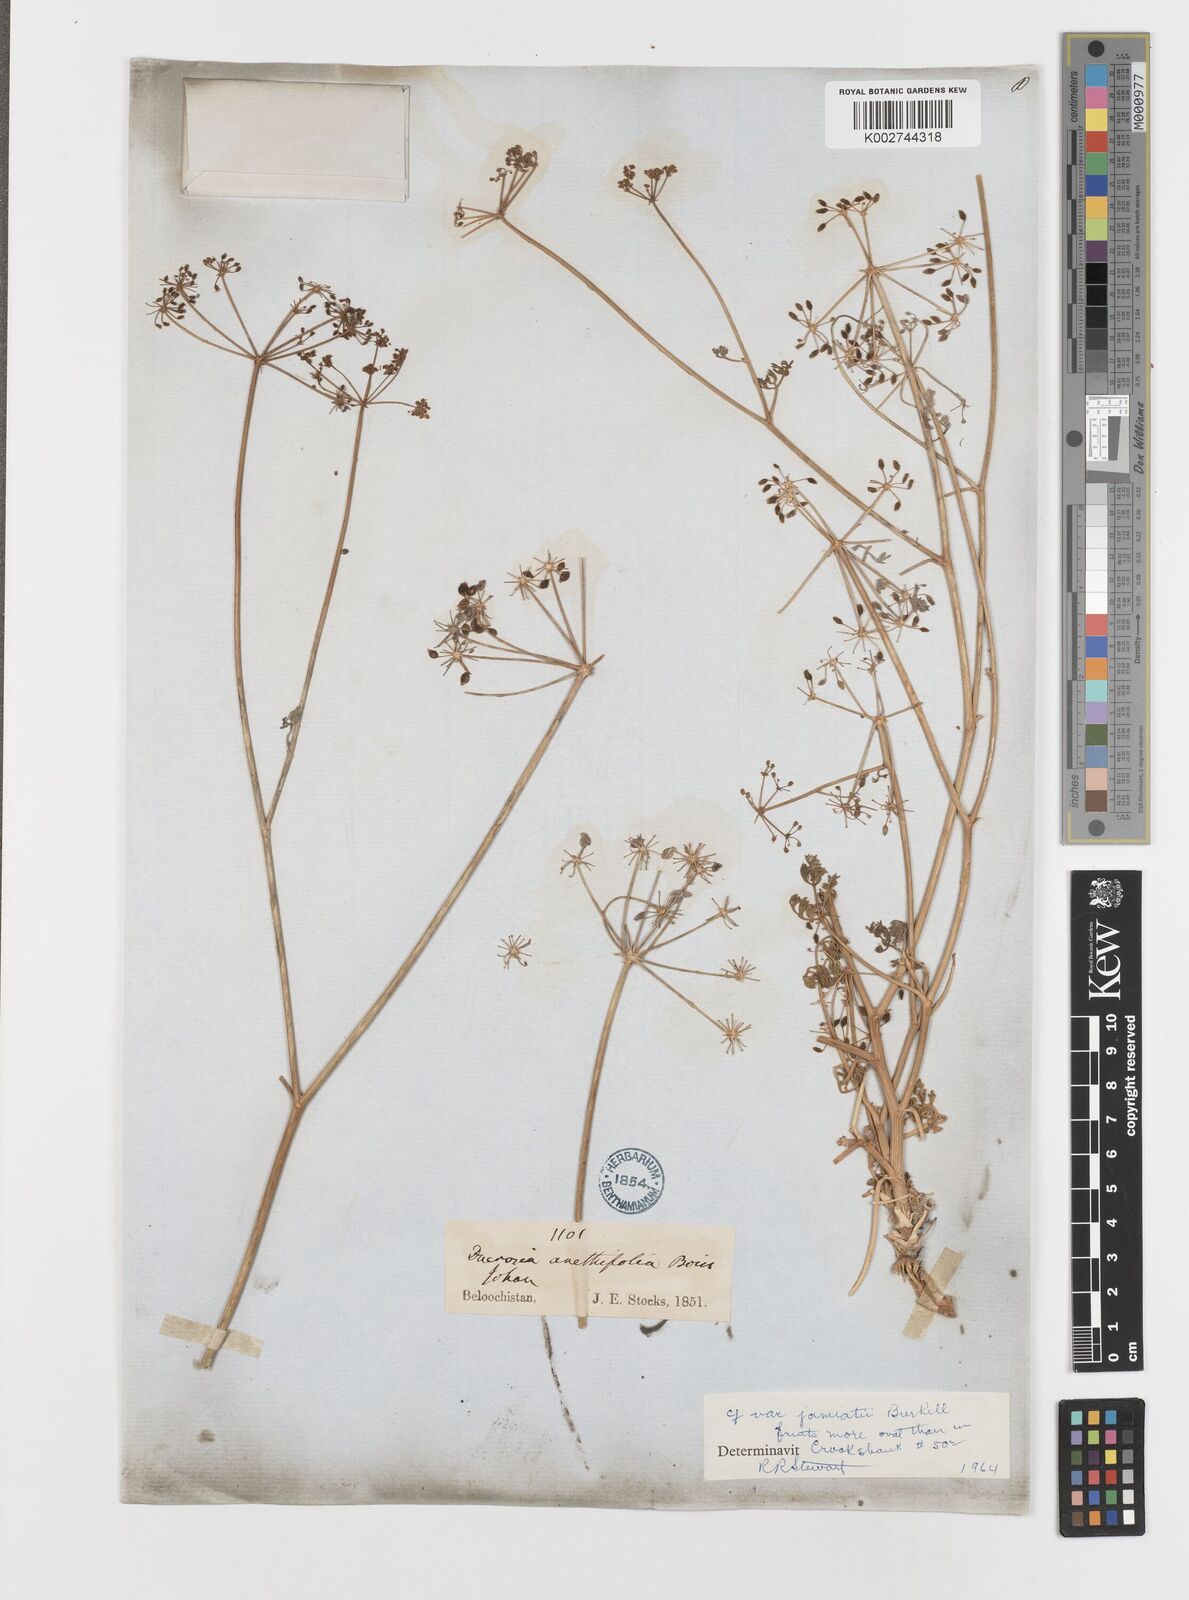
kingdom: Plantae
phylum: Tracheophyta
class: Magnoliopsida
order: Apiales
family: Apiaceae
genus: Ducrosia
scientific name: Ducrosia anethifolia
